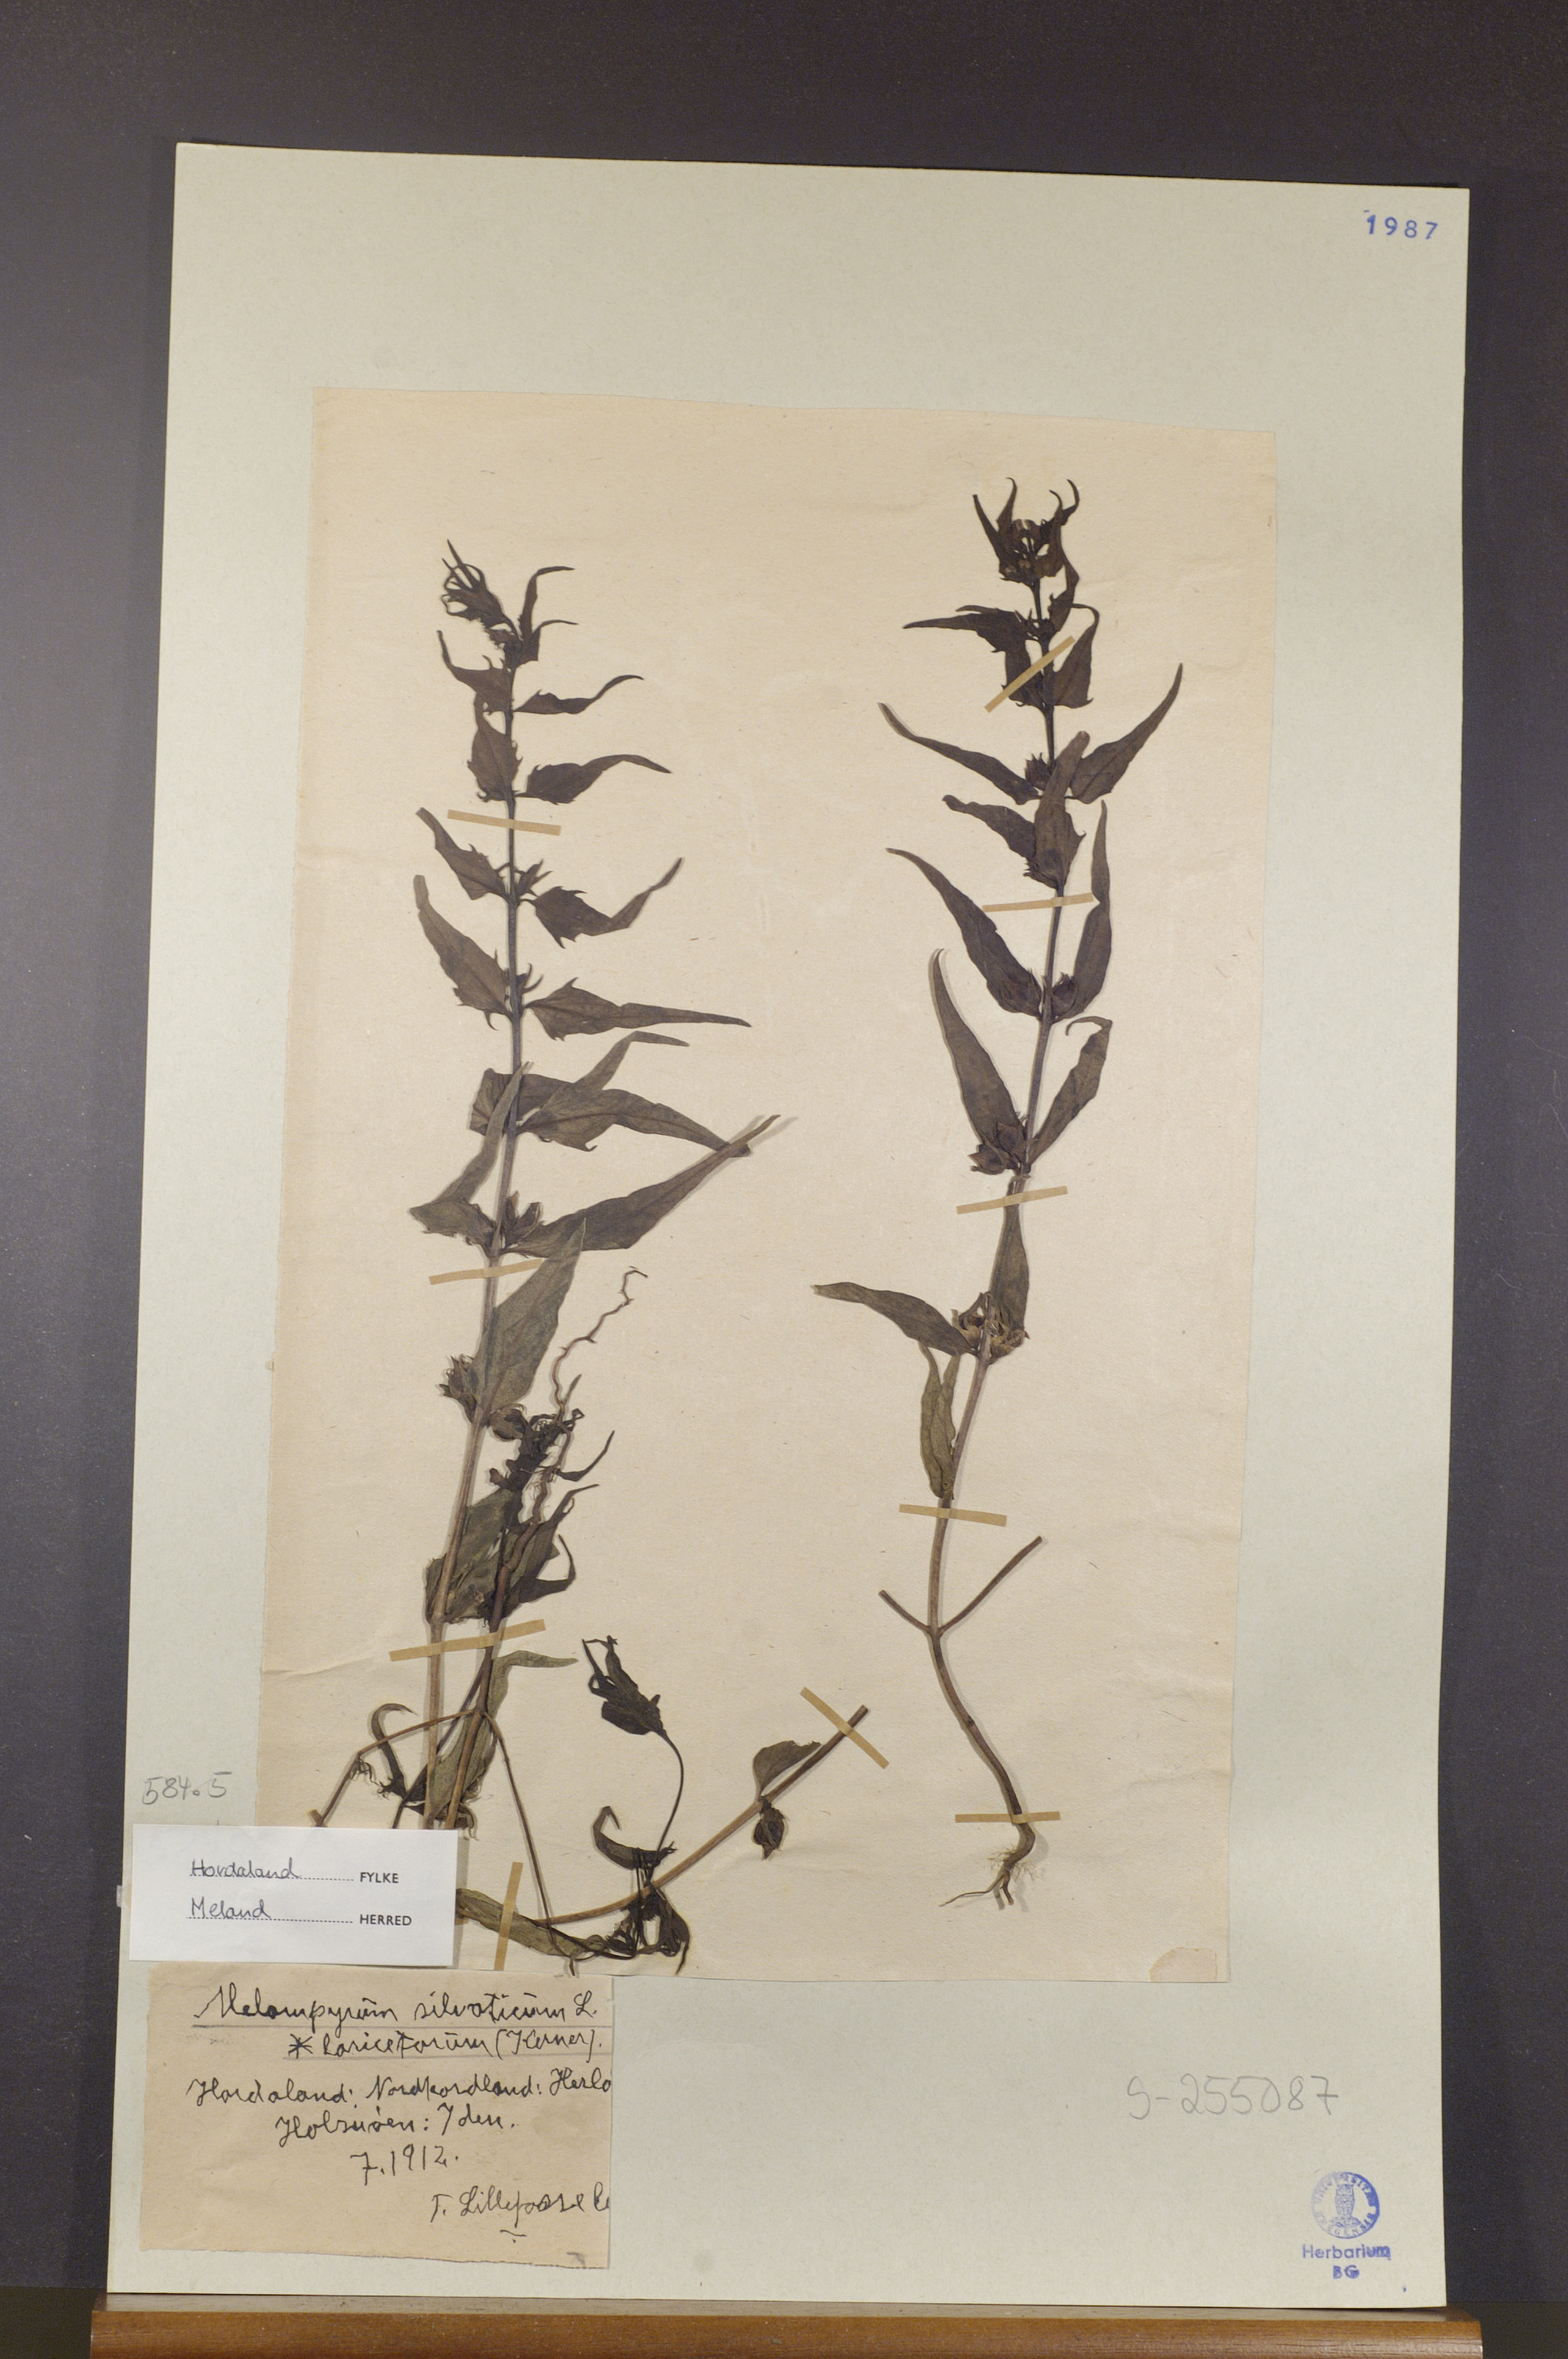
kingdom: Plantae
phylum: Tracheophyta
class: Magnoliopsida
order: Lamiales
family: Orobanchaceae
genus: Melampyrum
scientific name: Melampyrum sylvaticum
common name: Small cow-wheat
